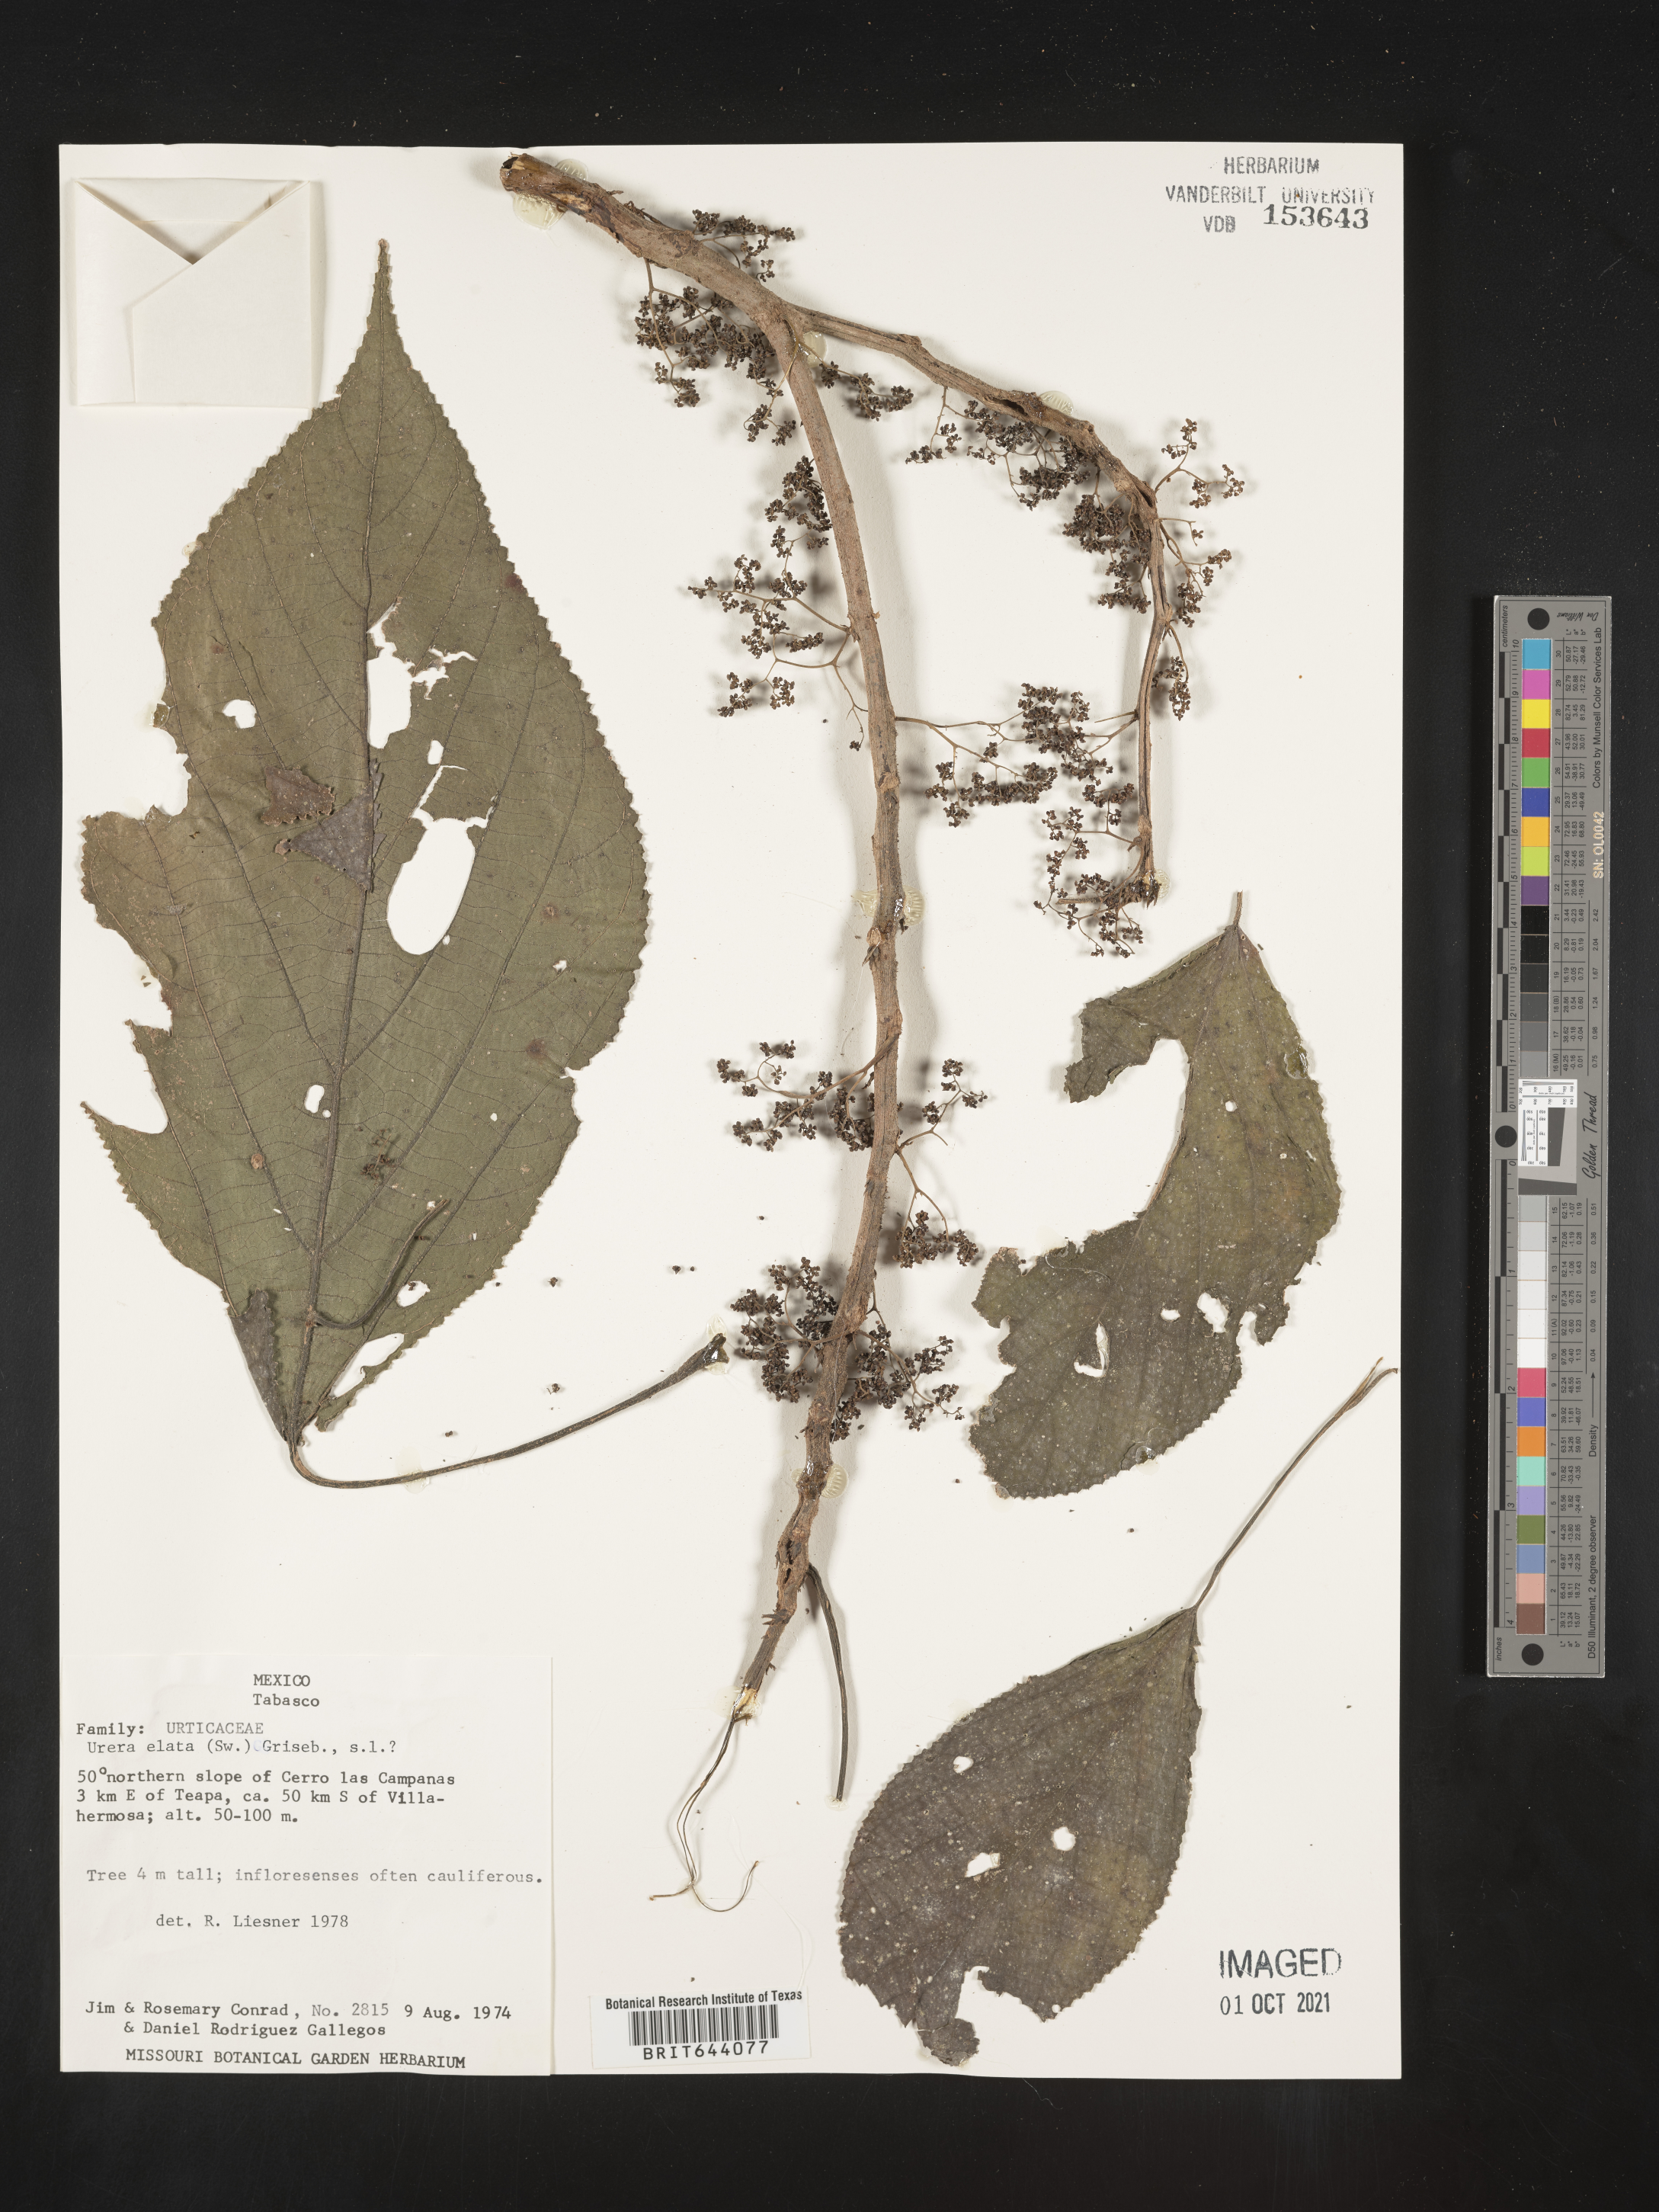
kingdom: Plantae
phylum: Tracheophyta
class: Magnoliopsida
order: Rosales
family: Urticaceae
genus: Urera
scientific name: Urera
